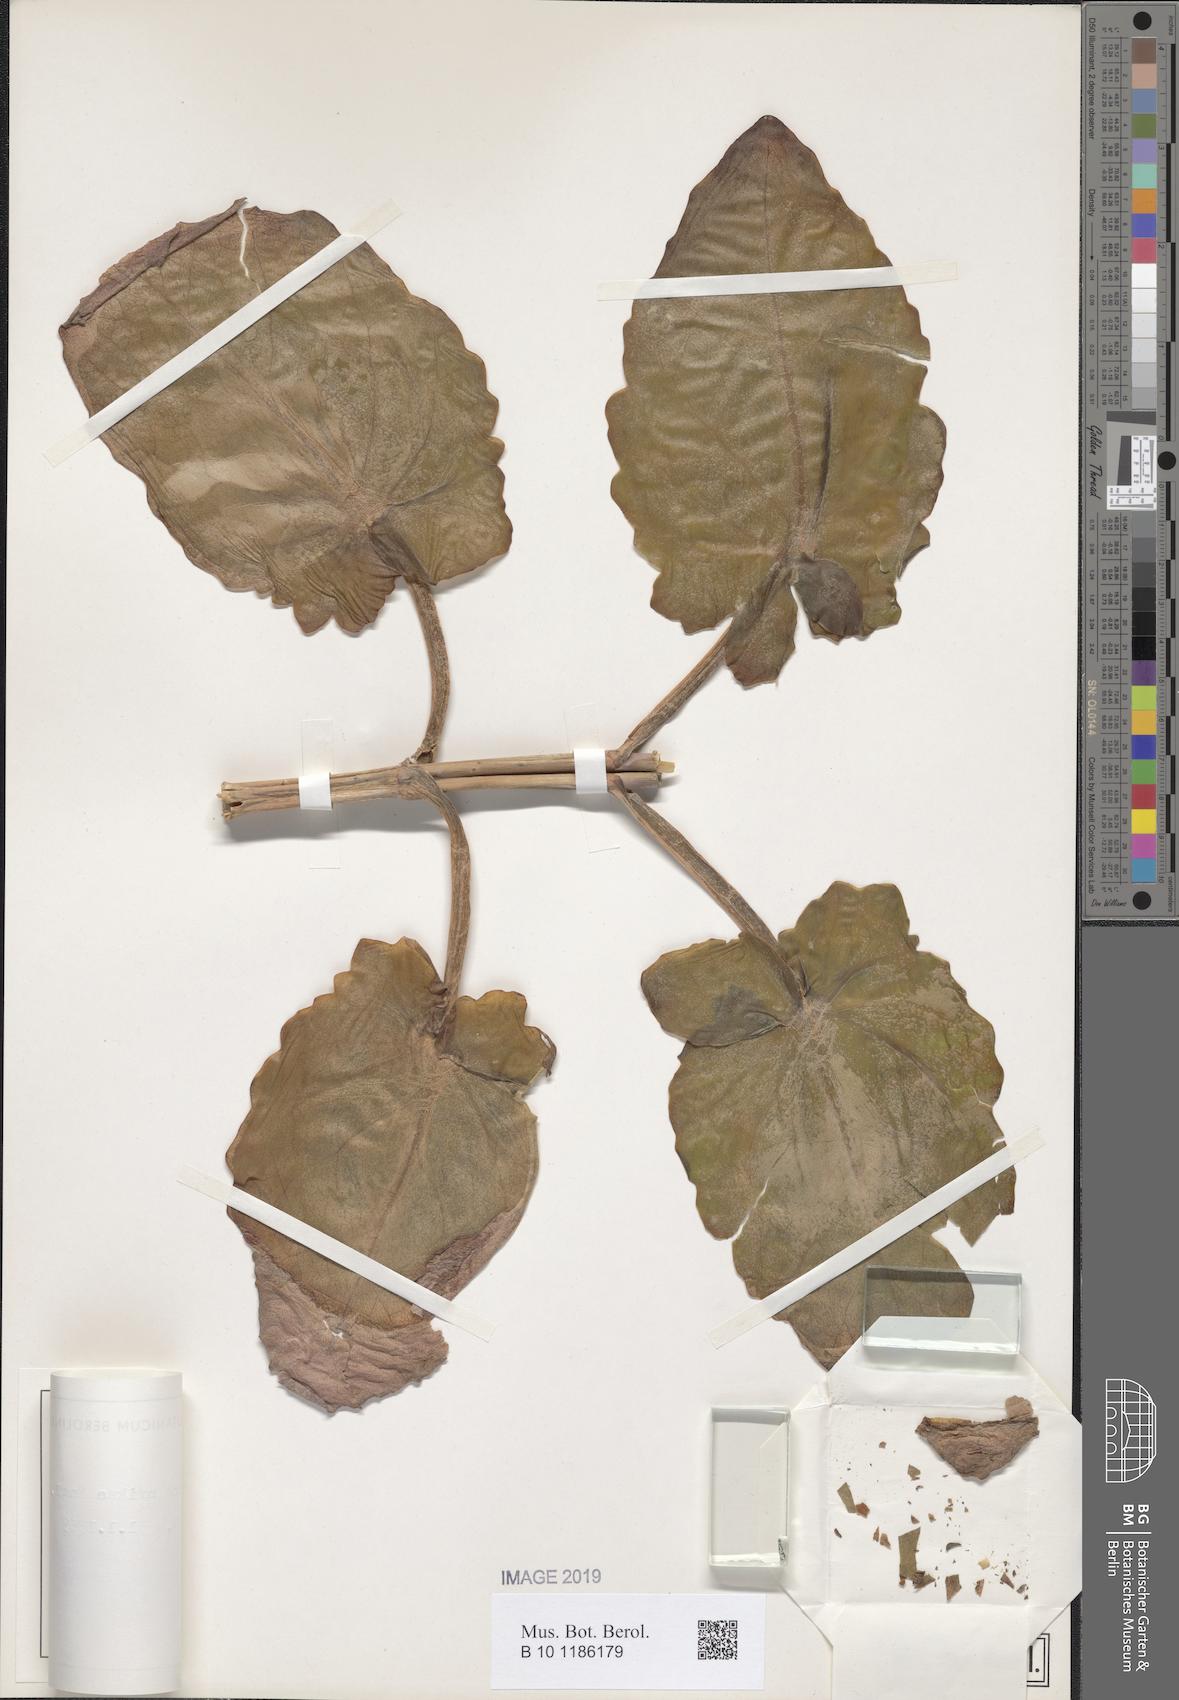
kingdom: Plantae
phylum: Tracheophyta
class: Magnoliopsida
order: Saxifragales
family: Crassulaceae
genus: Kalanchoe
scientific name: Kalanchoe auriculata
